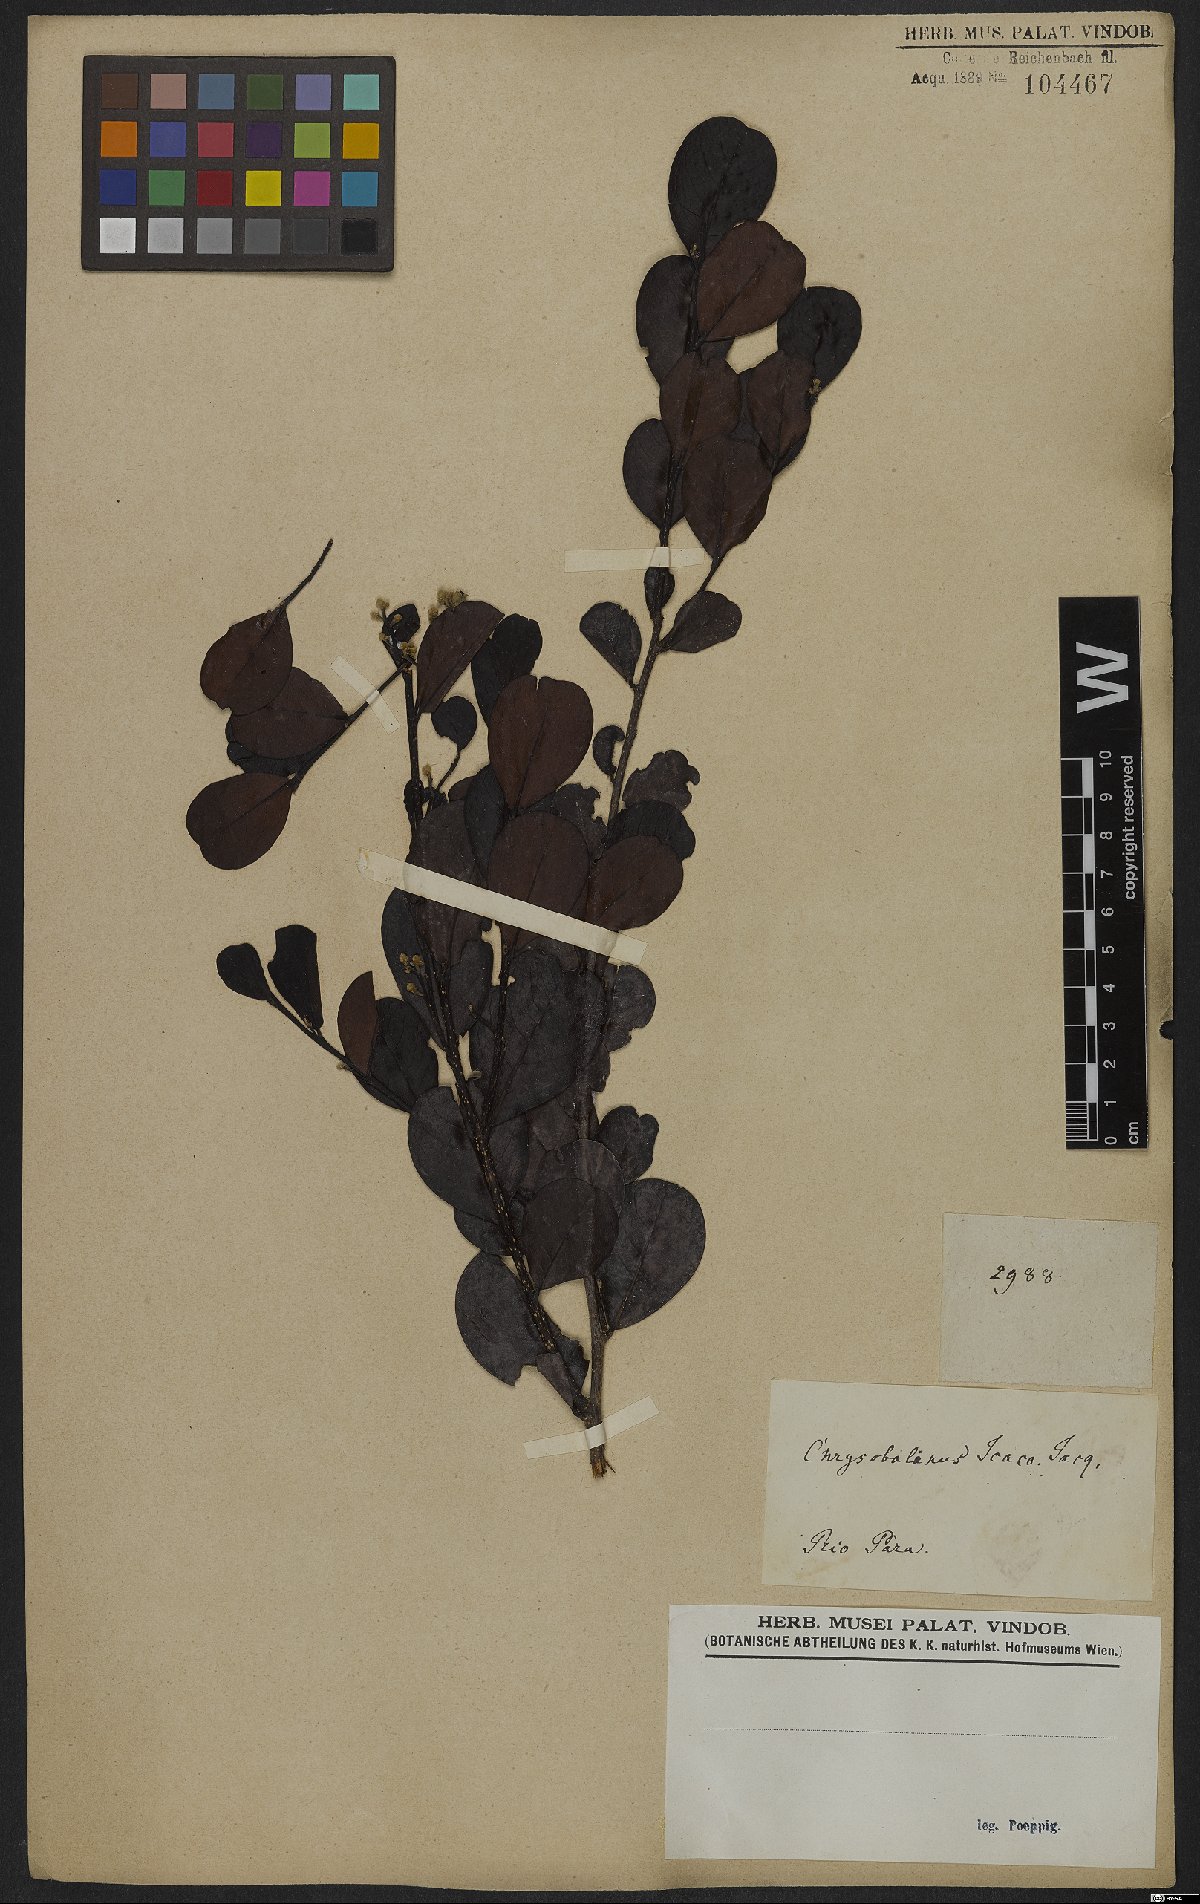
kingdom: Plantae
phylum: Tracheophyta
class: Magnoliopsida
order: Malpighiales
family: Chrysobalanaceae
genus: Chrysobalanus
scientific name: Chrysobalanus icaco
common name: Coco plum
